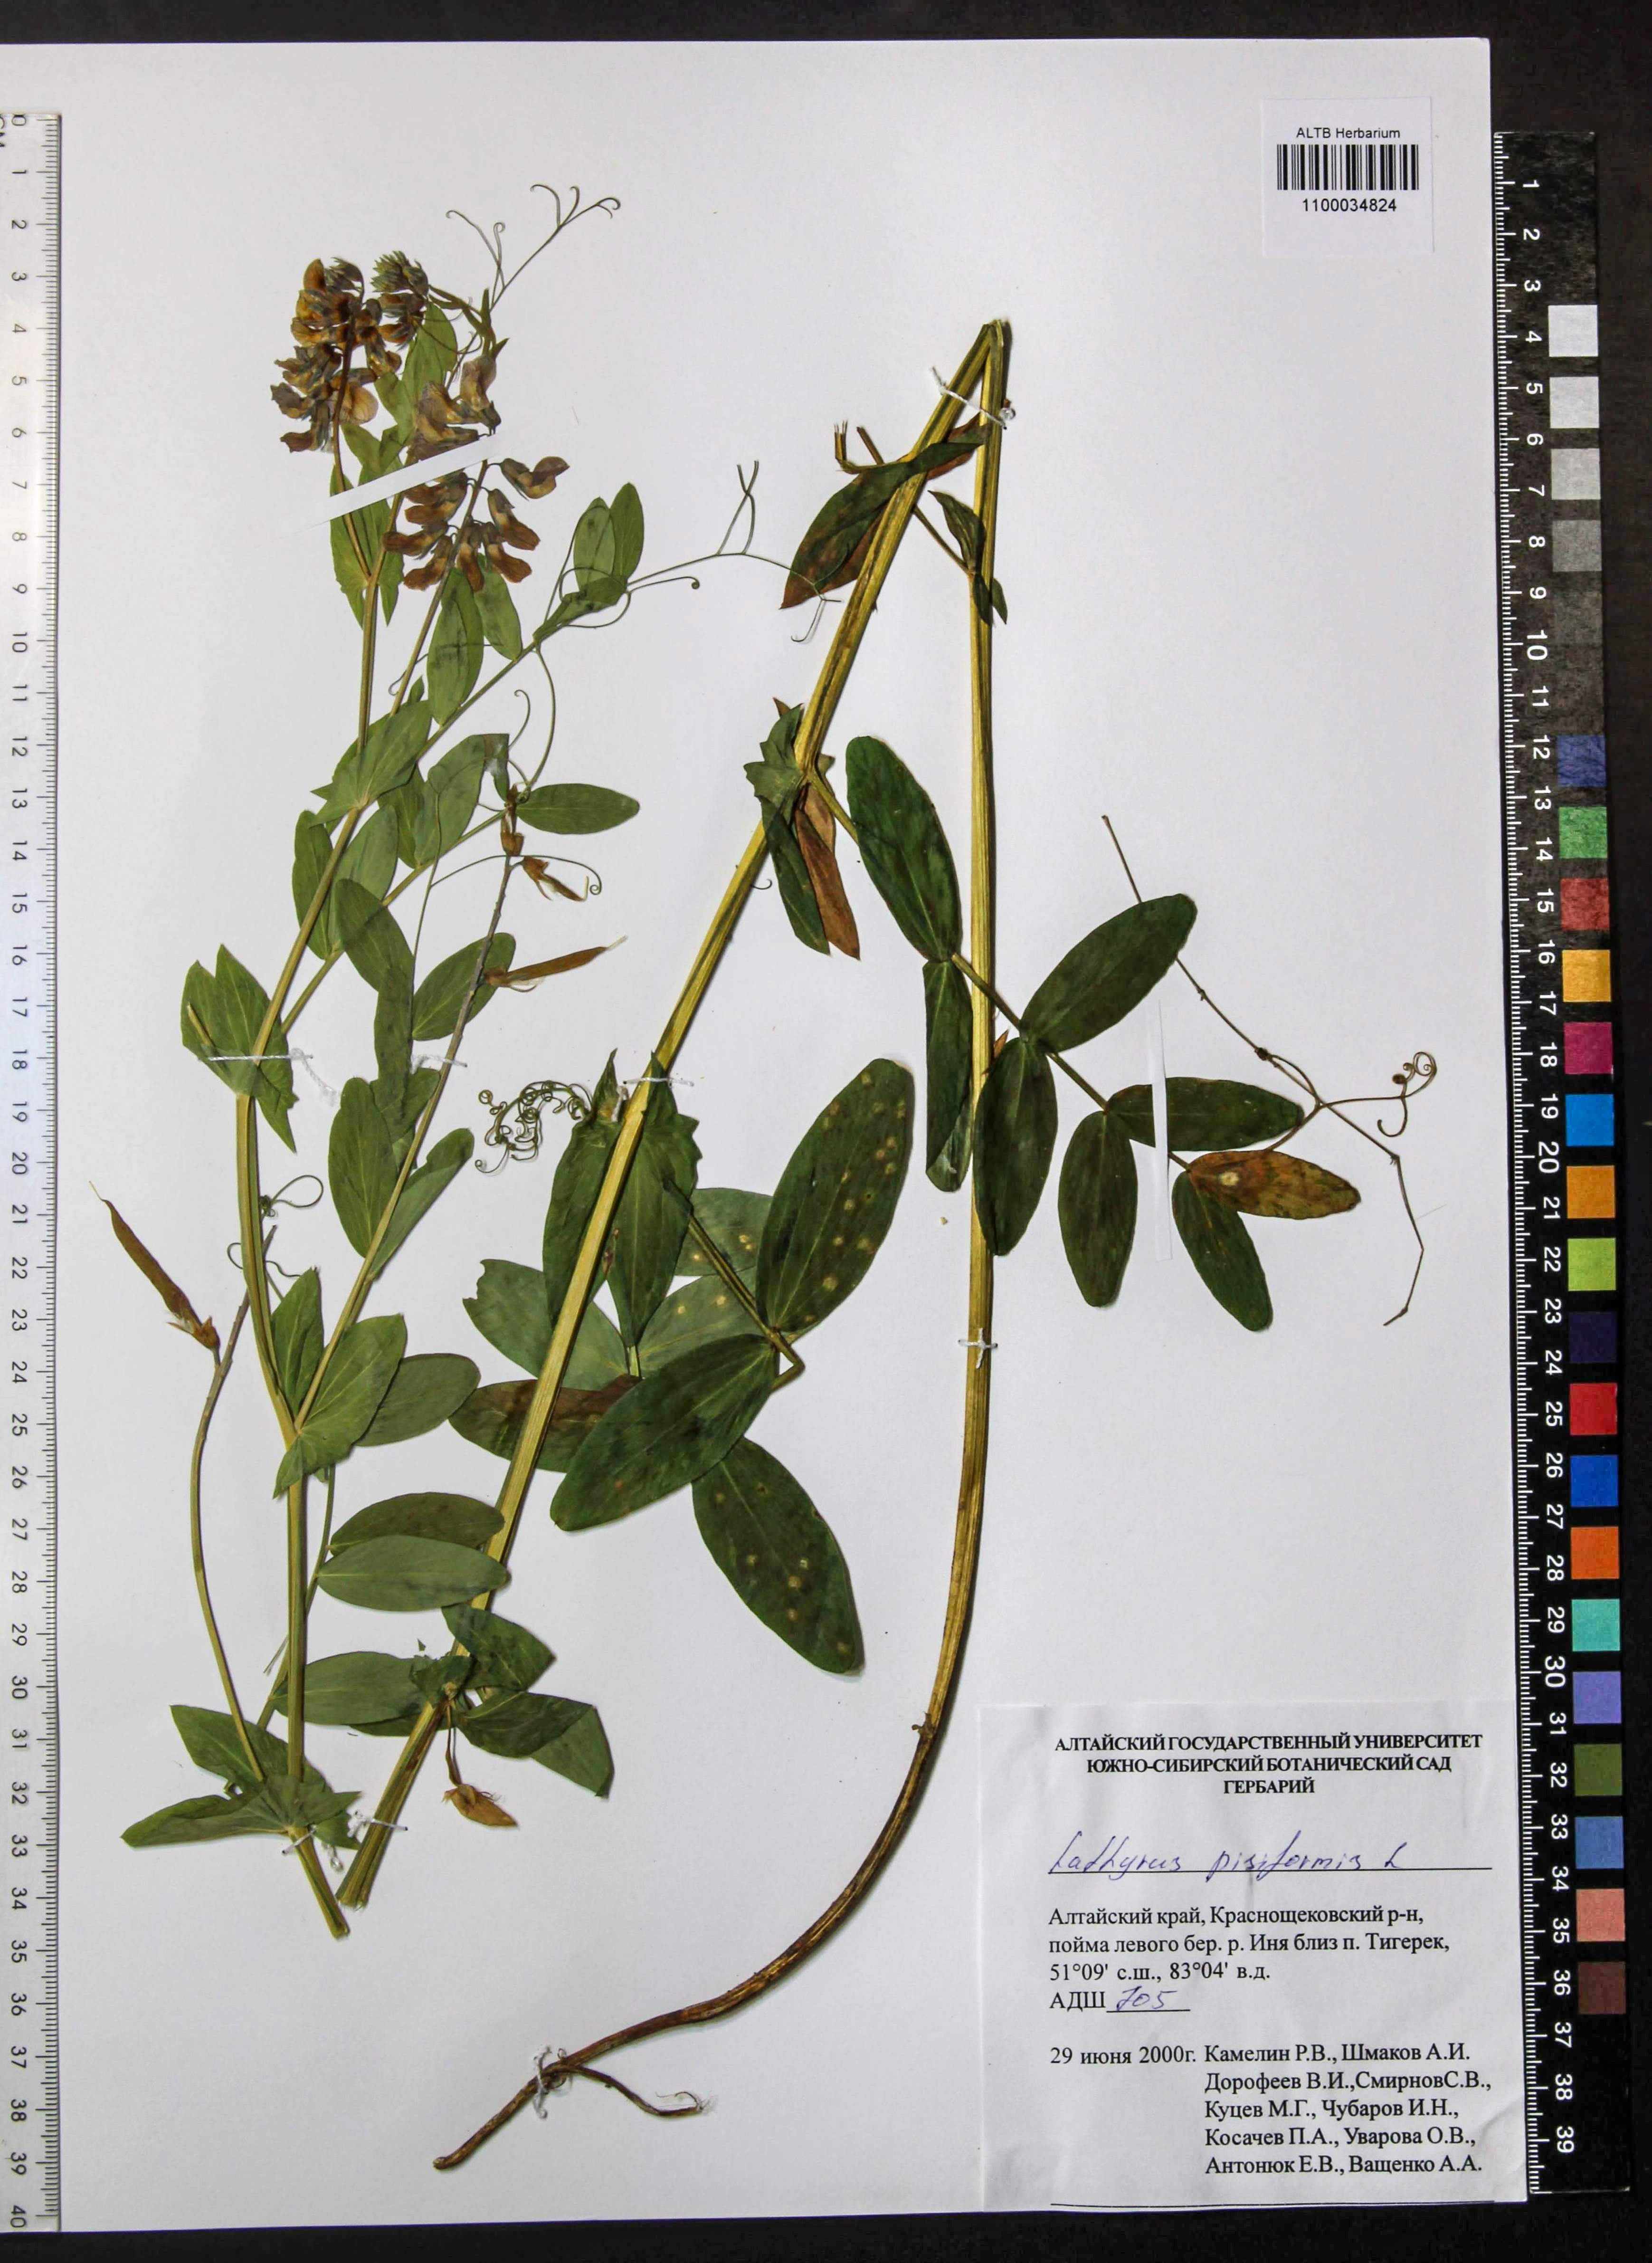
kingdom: Plantae
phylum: Tracheophyta
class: Magnoliopsida
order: Fabales
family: Fabaceae
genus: Lathyrus
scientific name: Lathyrus pisiformis
